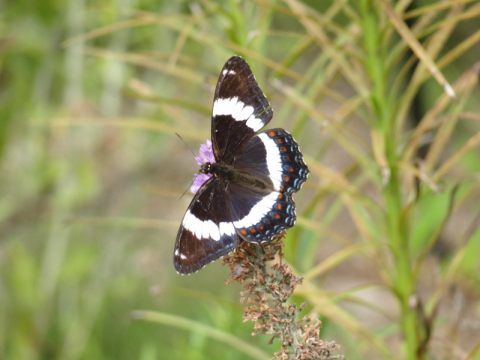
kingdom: Animalia
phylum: Arthropoda
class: Insecta
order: Lepidoptera
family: Nymphalidae
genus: Limenitis
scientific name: Limenitis arthemis
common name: Red-spotted Admiral
